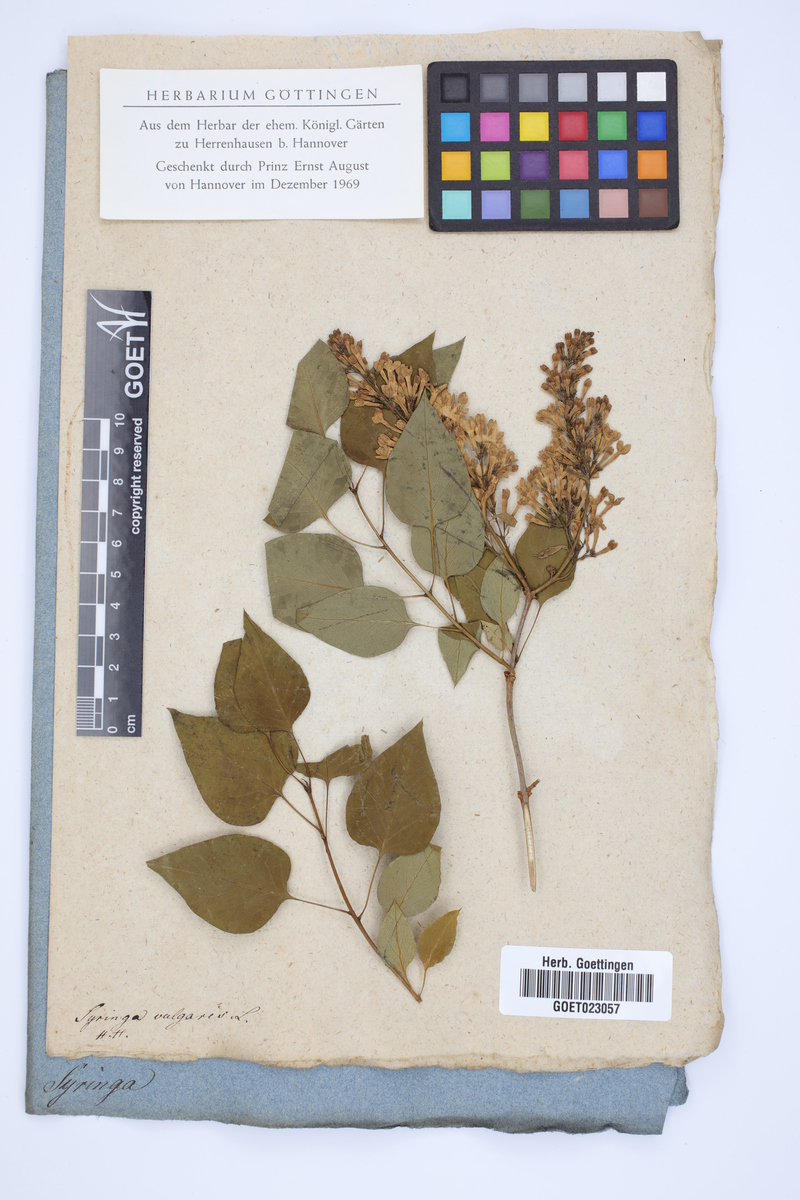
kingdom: Plantae
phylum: Tracheophyta
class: Magnoliopsida
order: Lamiales
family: Oleaceae
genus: Syringa
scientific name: Syringa vulgaris
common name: Common lilac
